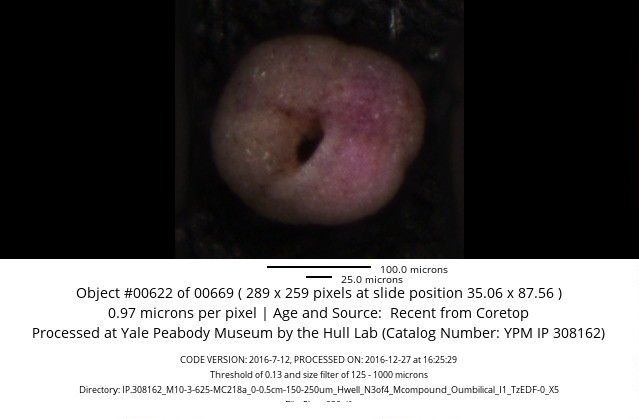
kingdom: Chromista
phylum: Foraminifera
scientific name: Foraminifera
